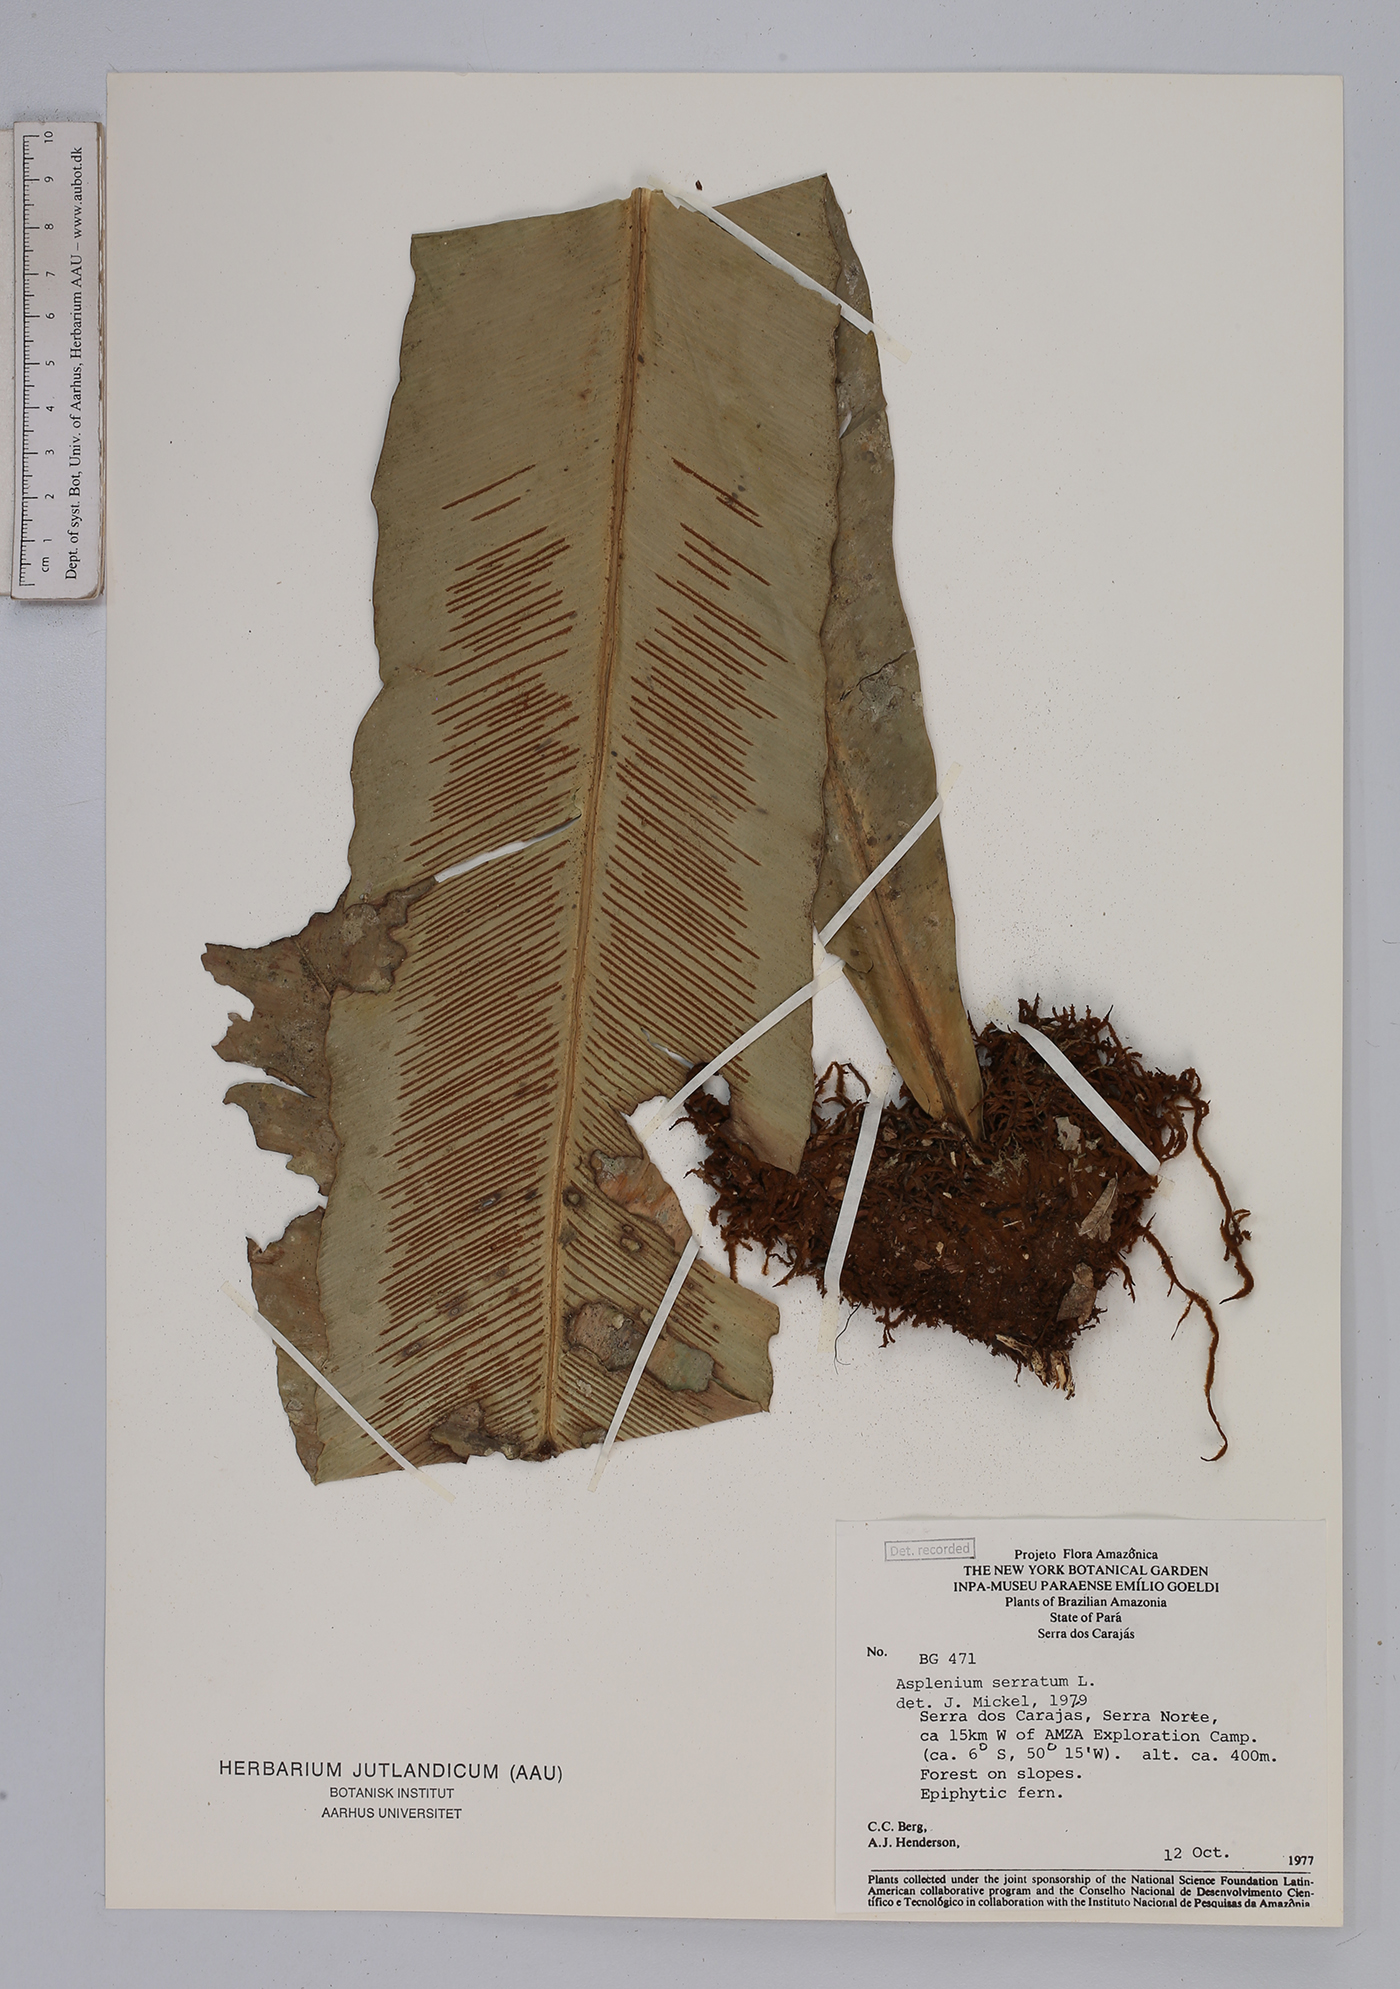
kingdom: Plantae
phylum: Tracheophyta
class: Polypodiopsida
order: Polypodiales
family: Aspleniaceae
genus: Asplenium
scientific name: Asplenium serratum
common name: Wild birdnest fern
